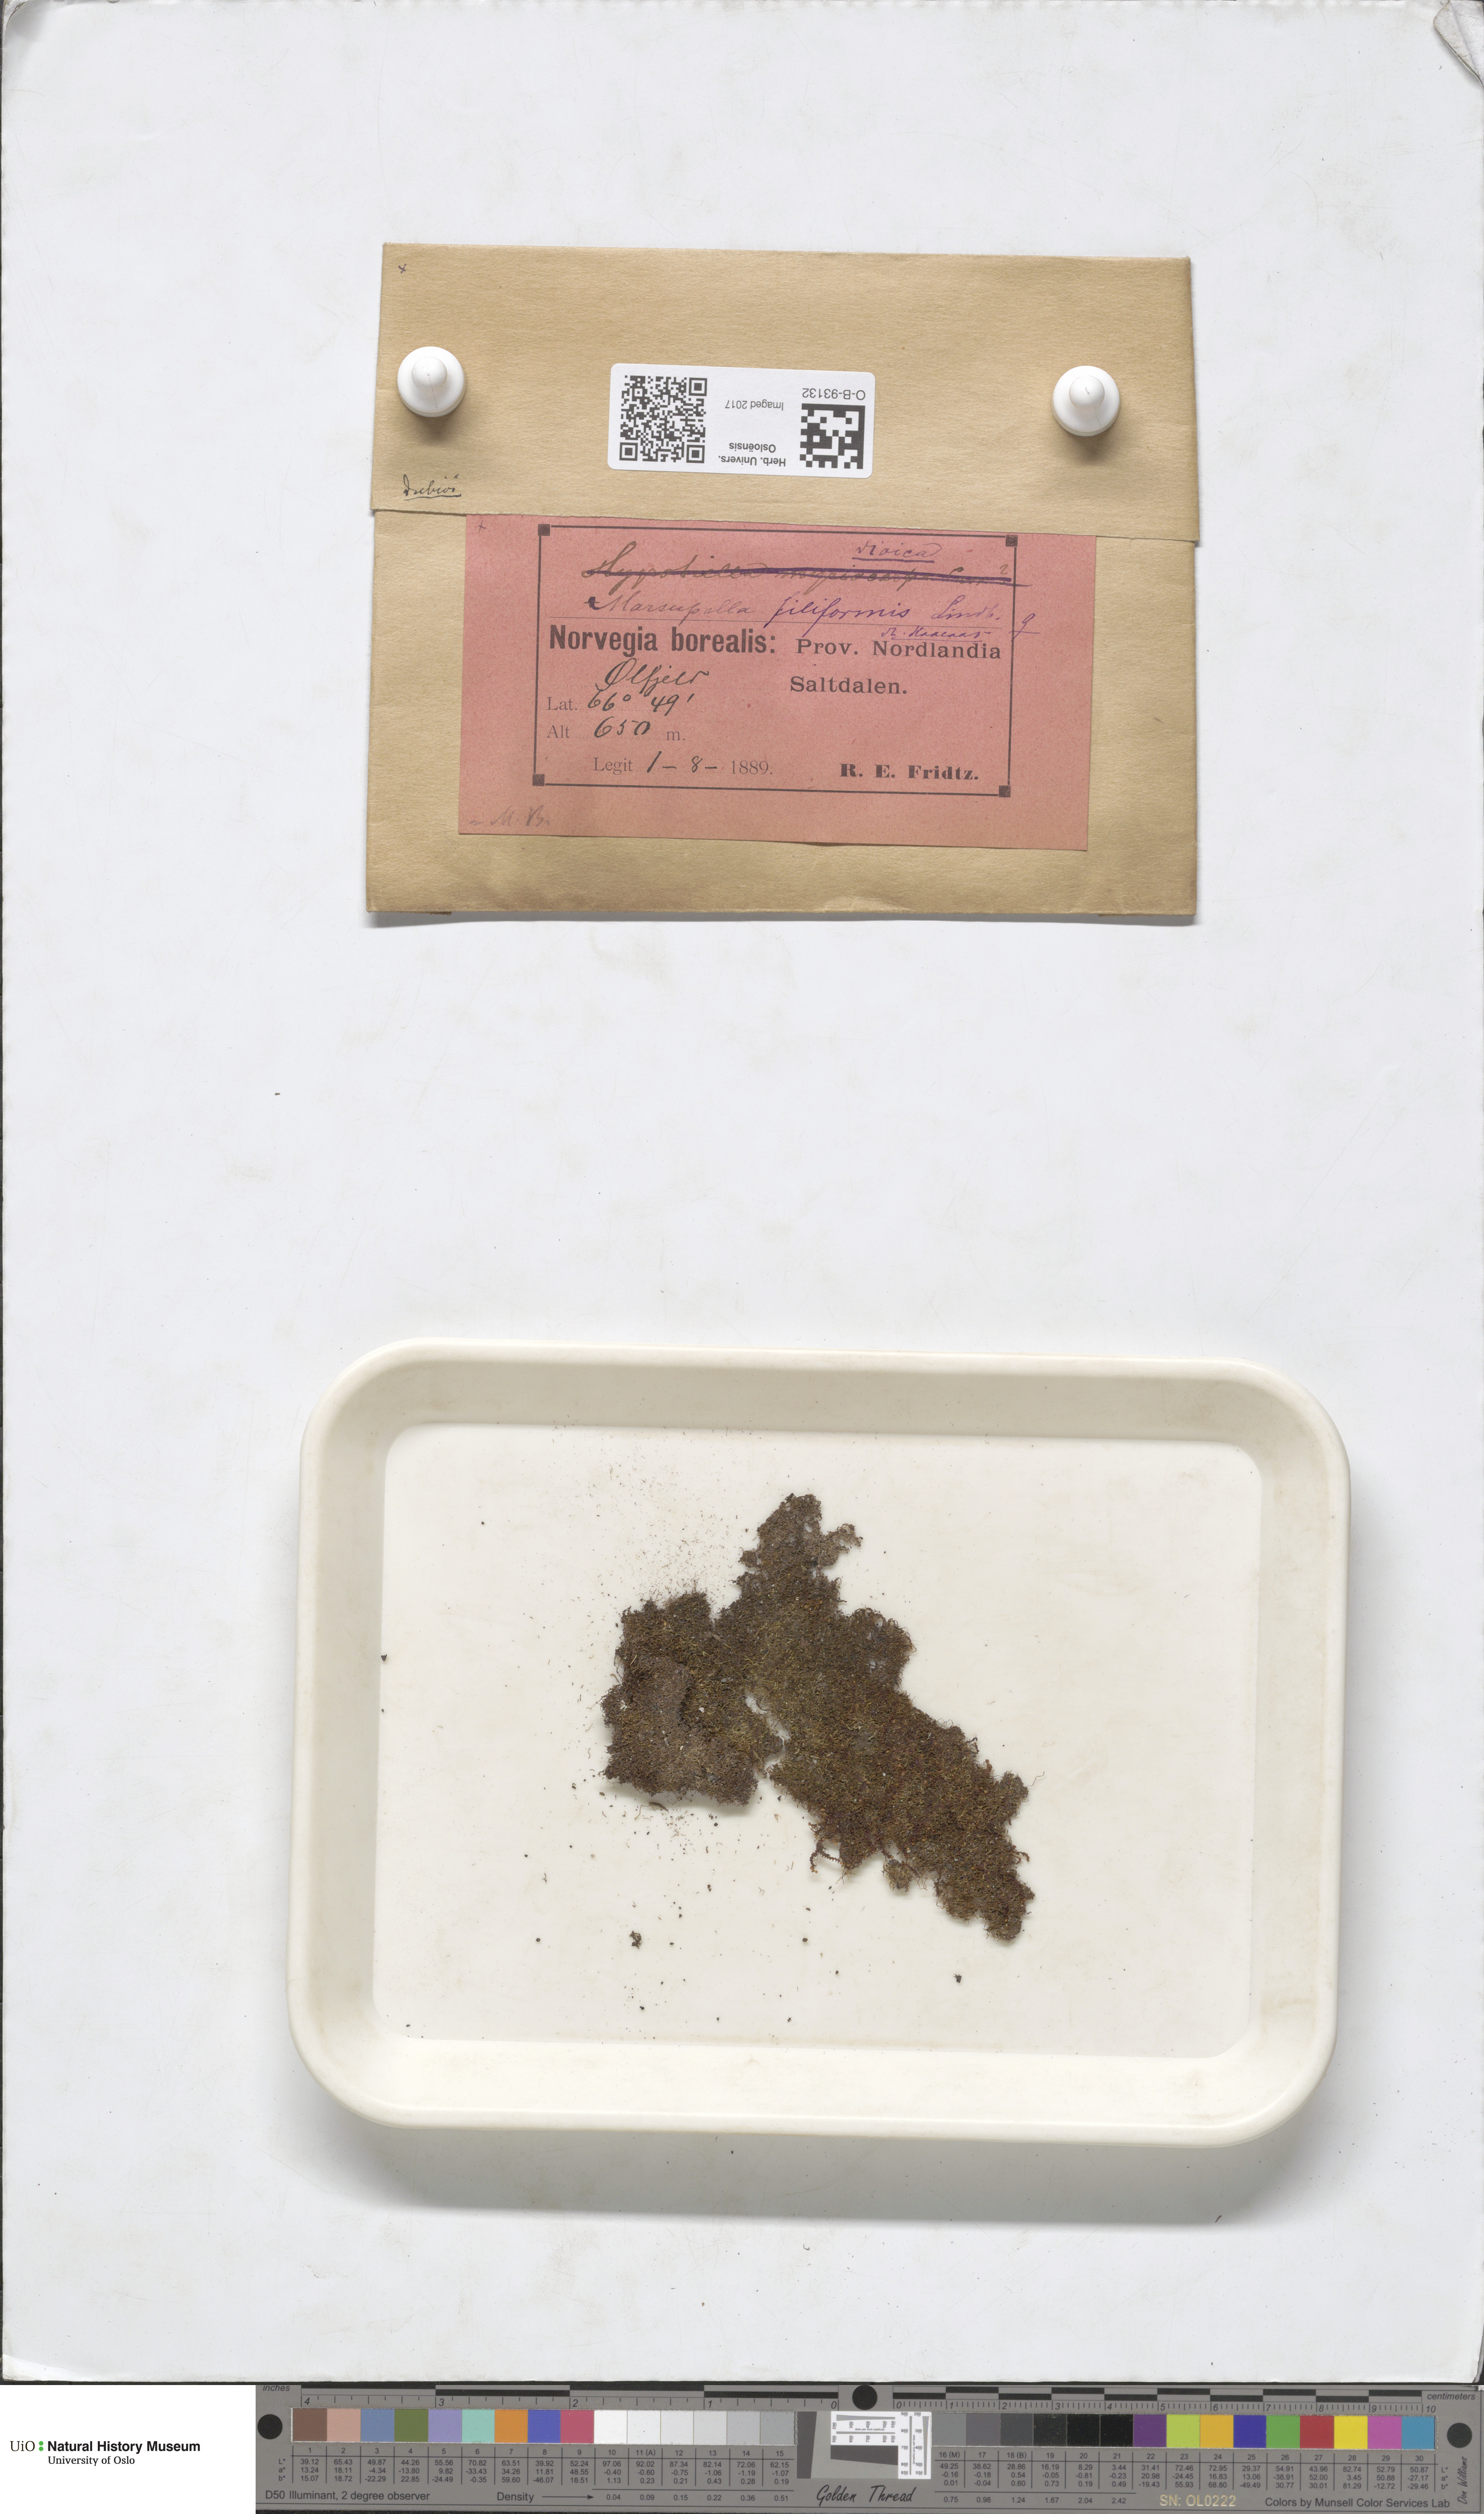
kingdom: Plantae
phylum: Marchantiophyta
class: Jungermanniopsida
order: Jungermanniales
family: Gymnomitriaceae
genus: Marsupella
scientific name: Marsupella boeckii
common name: Boeck s rustwort
